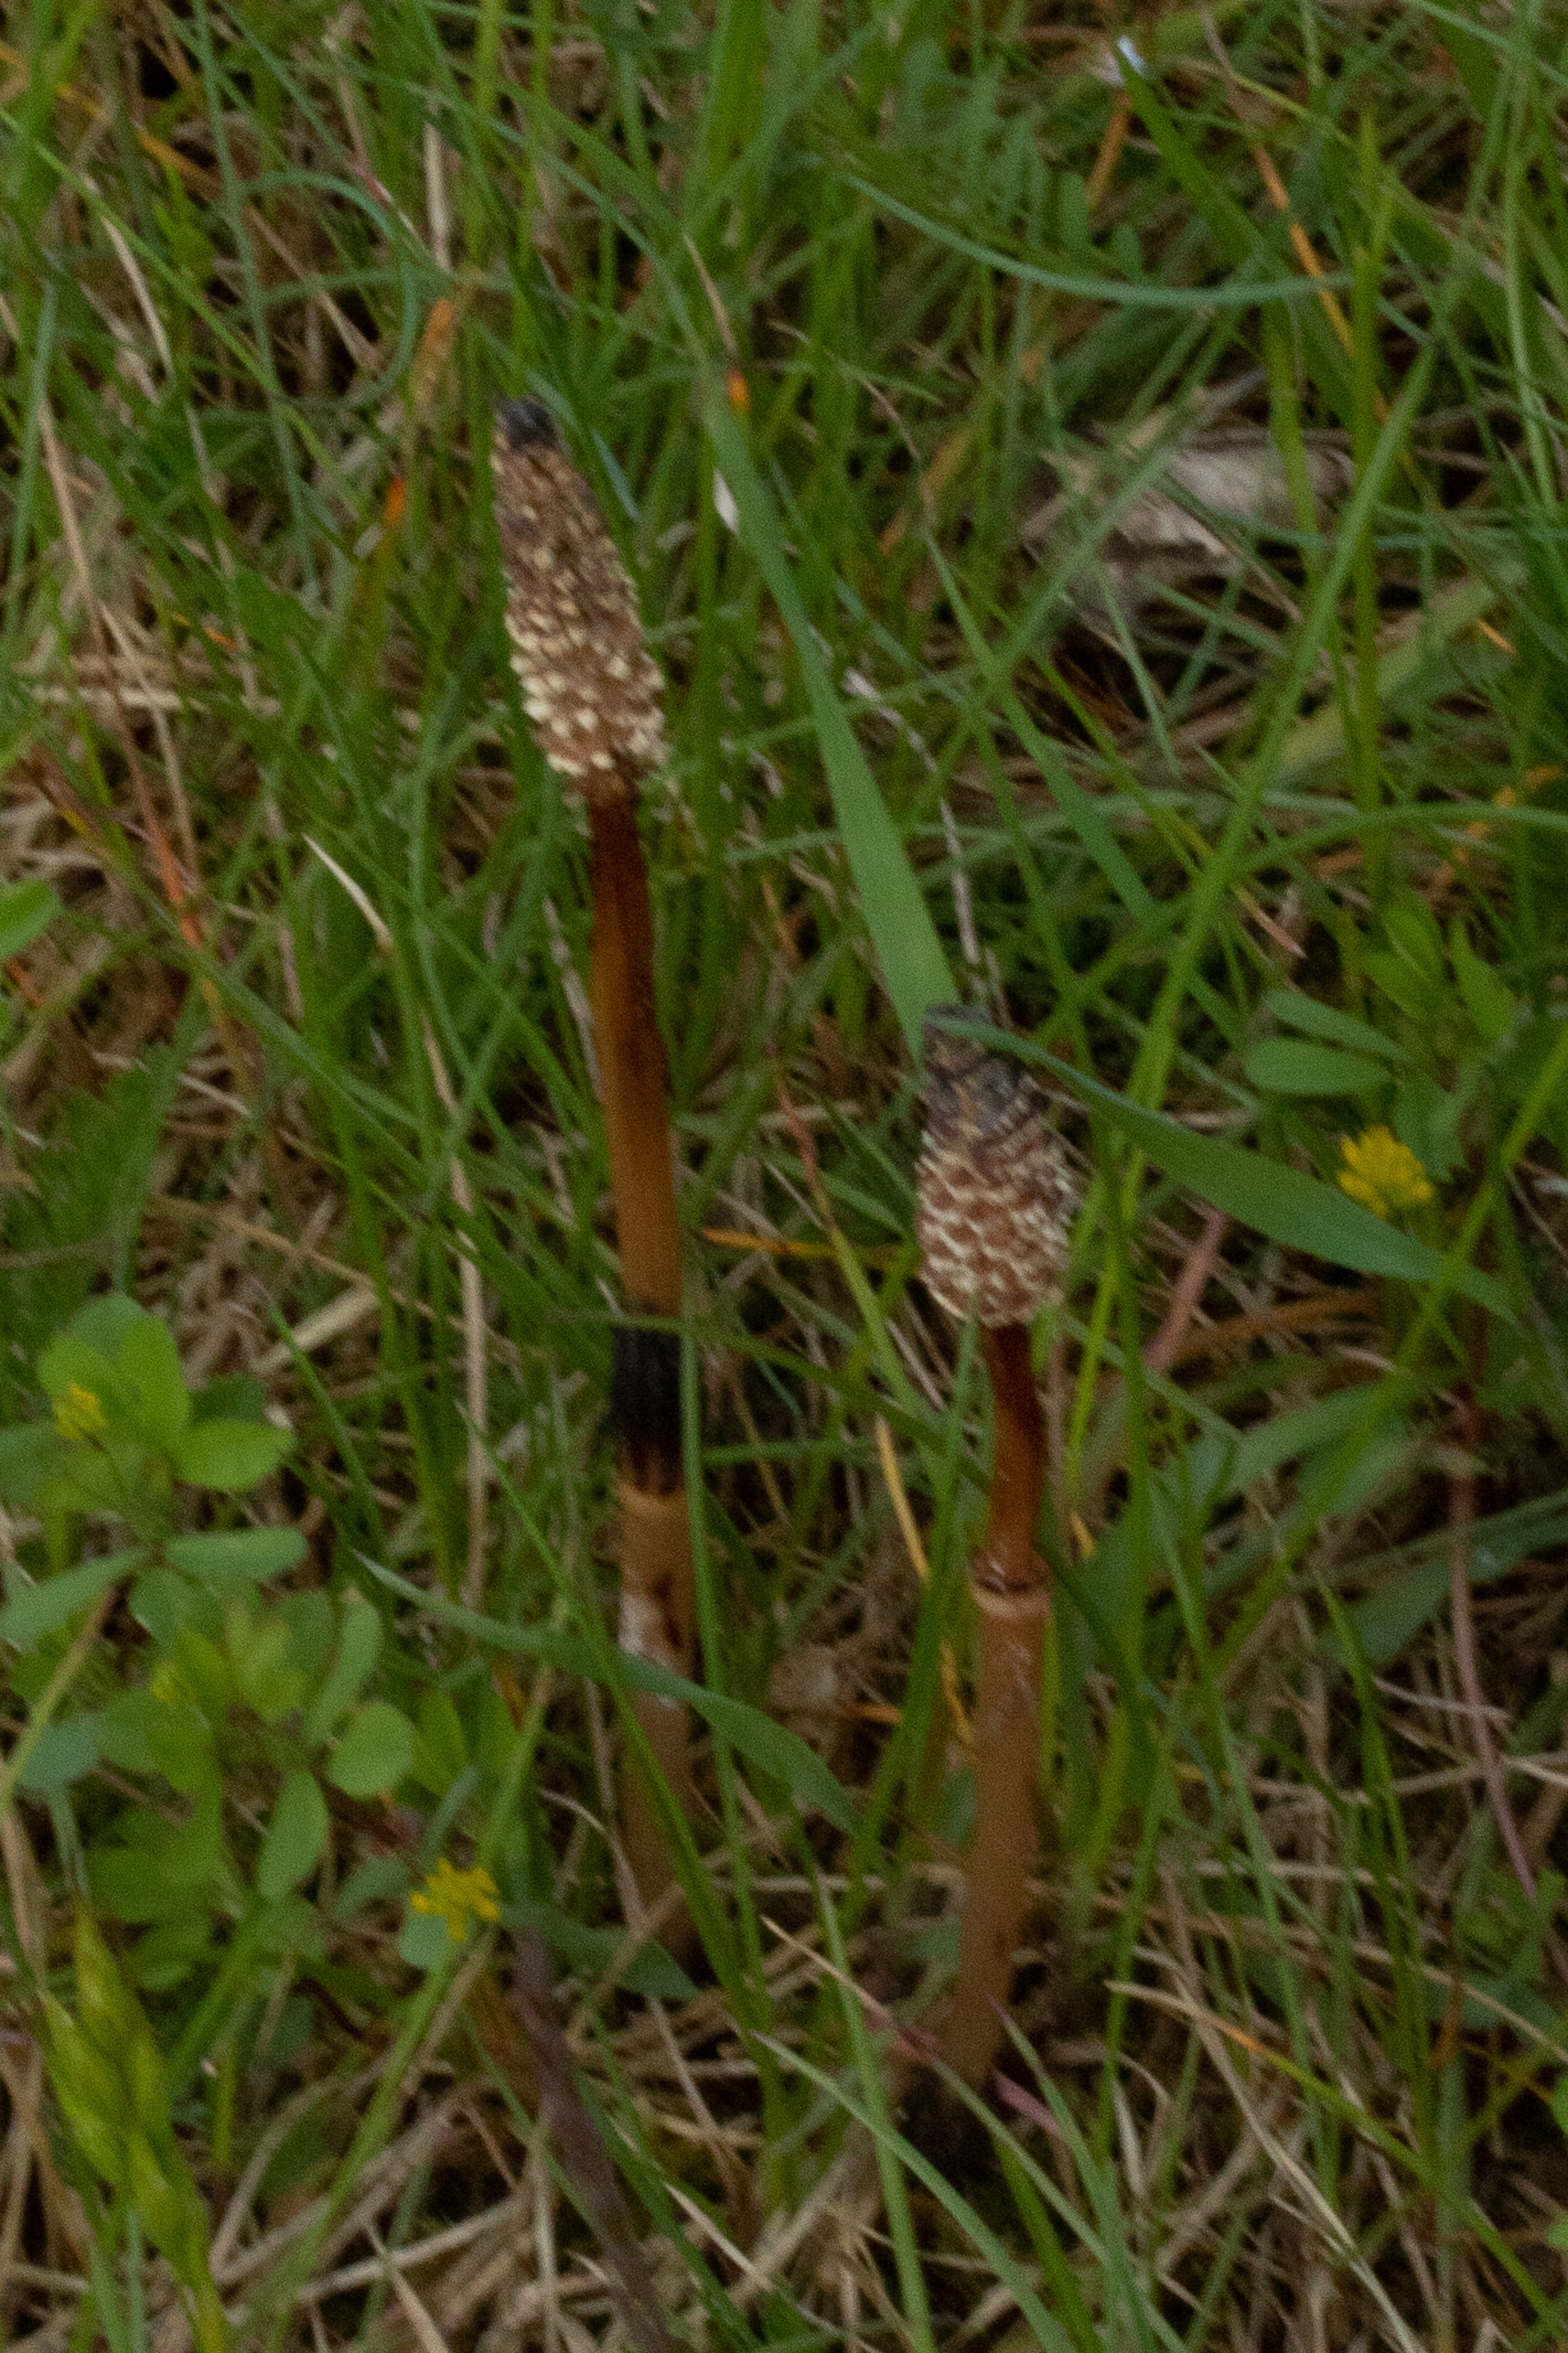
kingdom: Plantae
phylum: Tracheophyta
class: Polypodiopsida
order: Equisetales
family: Equisetaceae
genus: Equisetum
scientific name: Equisetum arvense
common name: Ager-padderok
